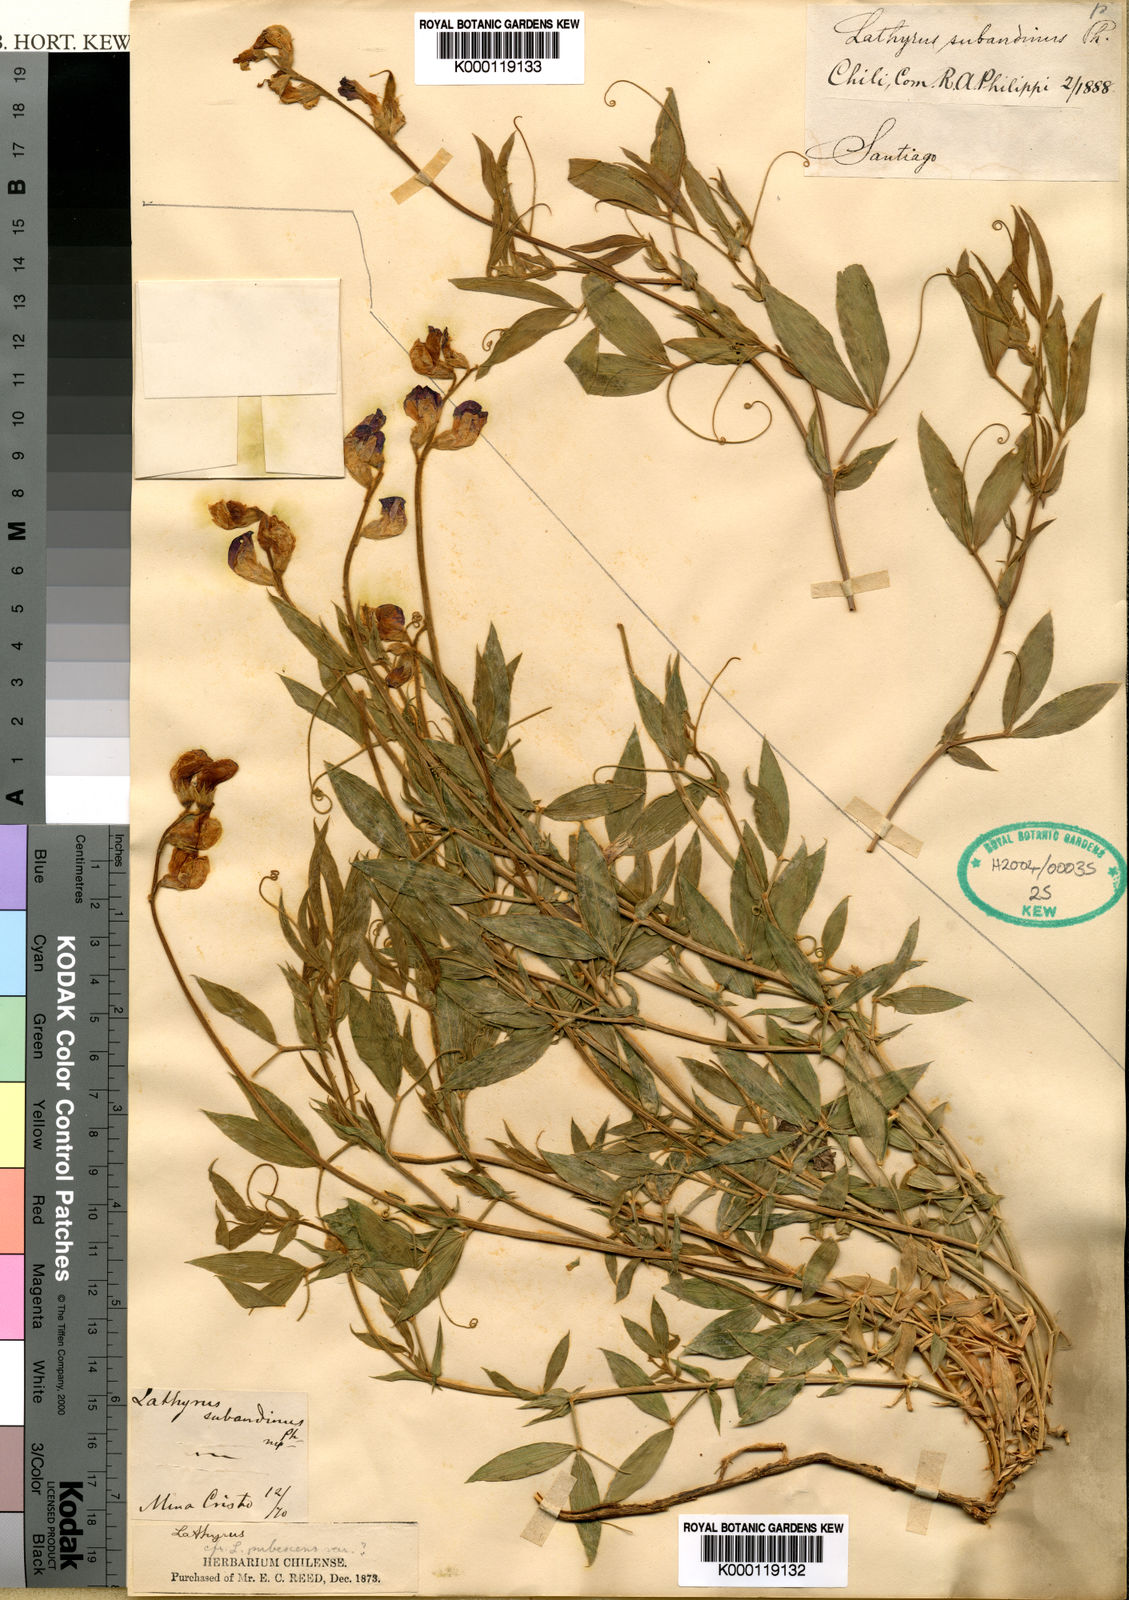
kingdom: Plantae
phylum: Tracheophyta
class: Magnoliopsida
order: Fabales
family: Fabaceae
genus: Lathyrus
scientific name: Lathyrus subandinus
